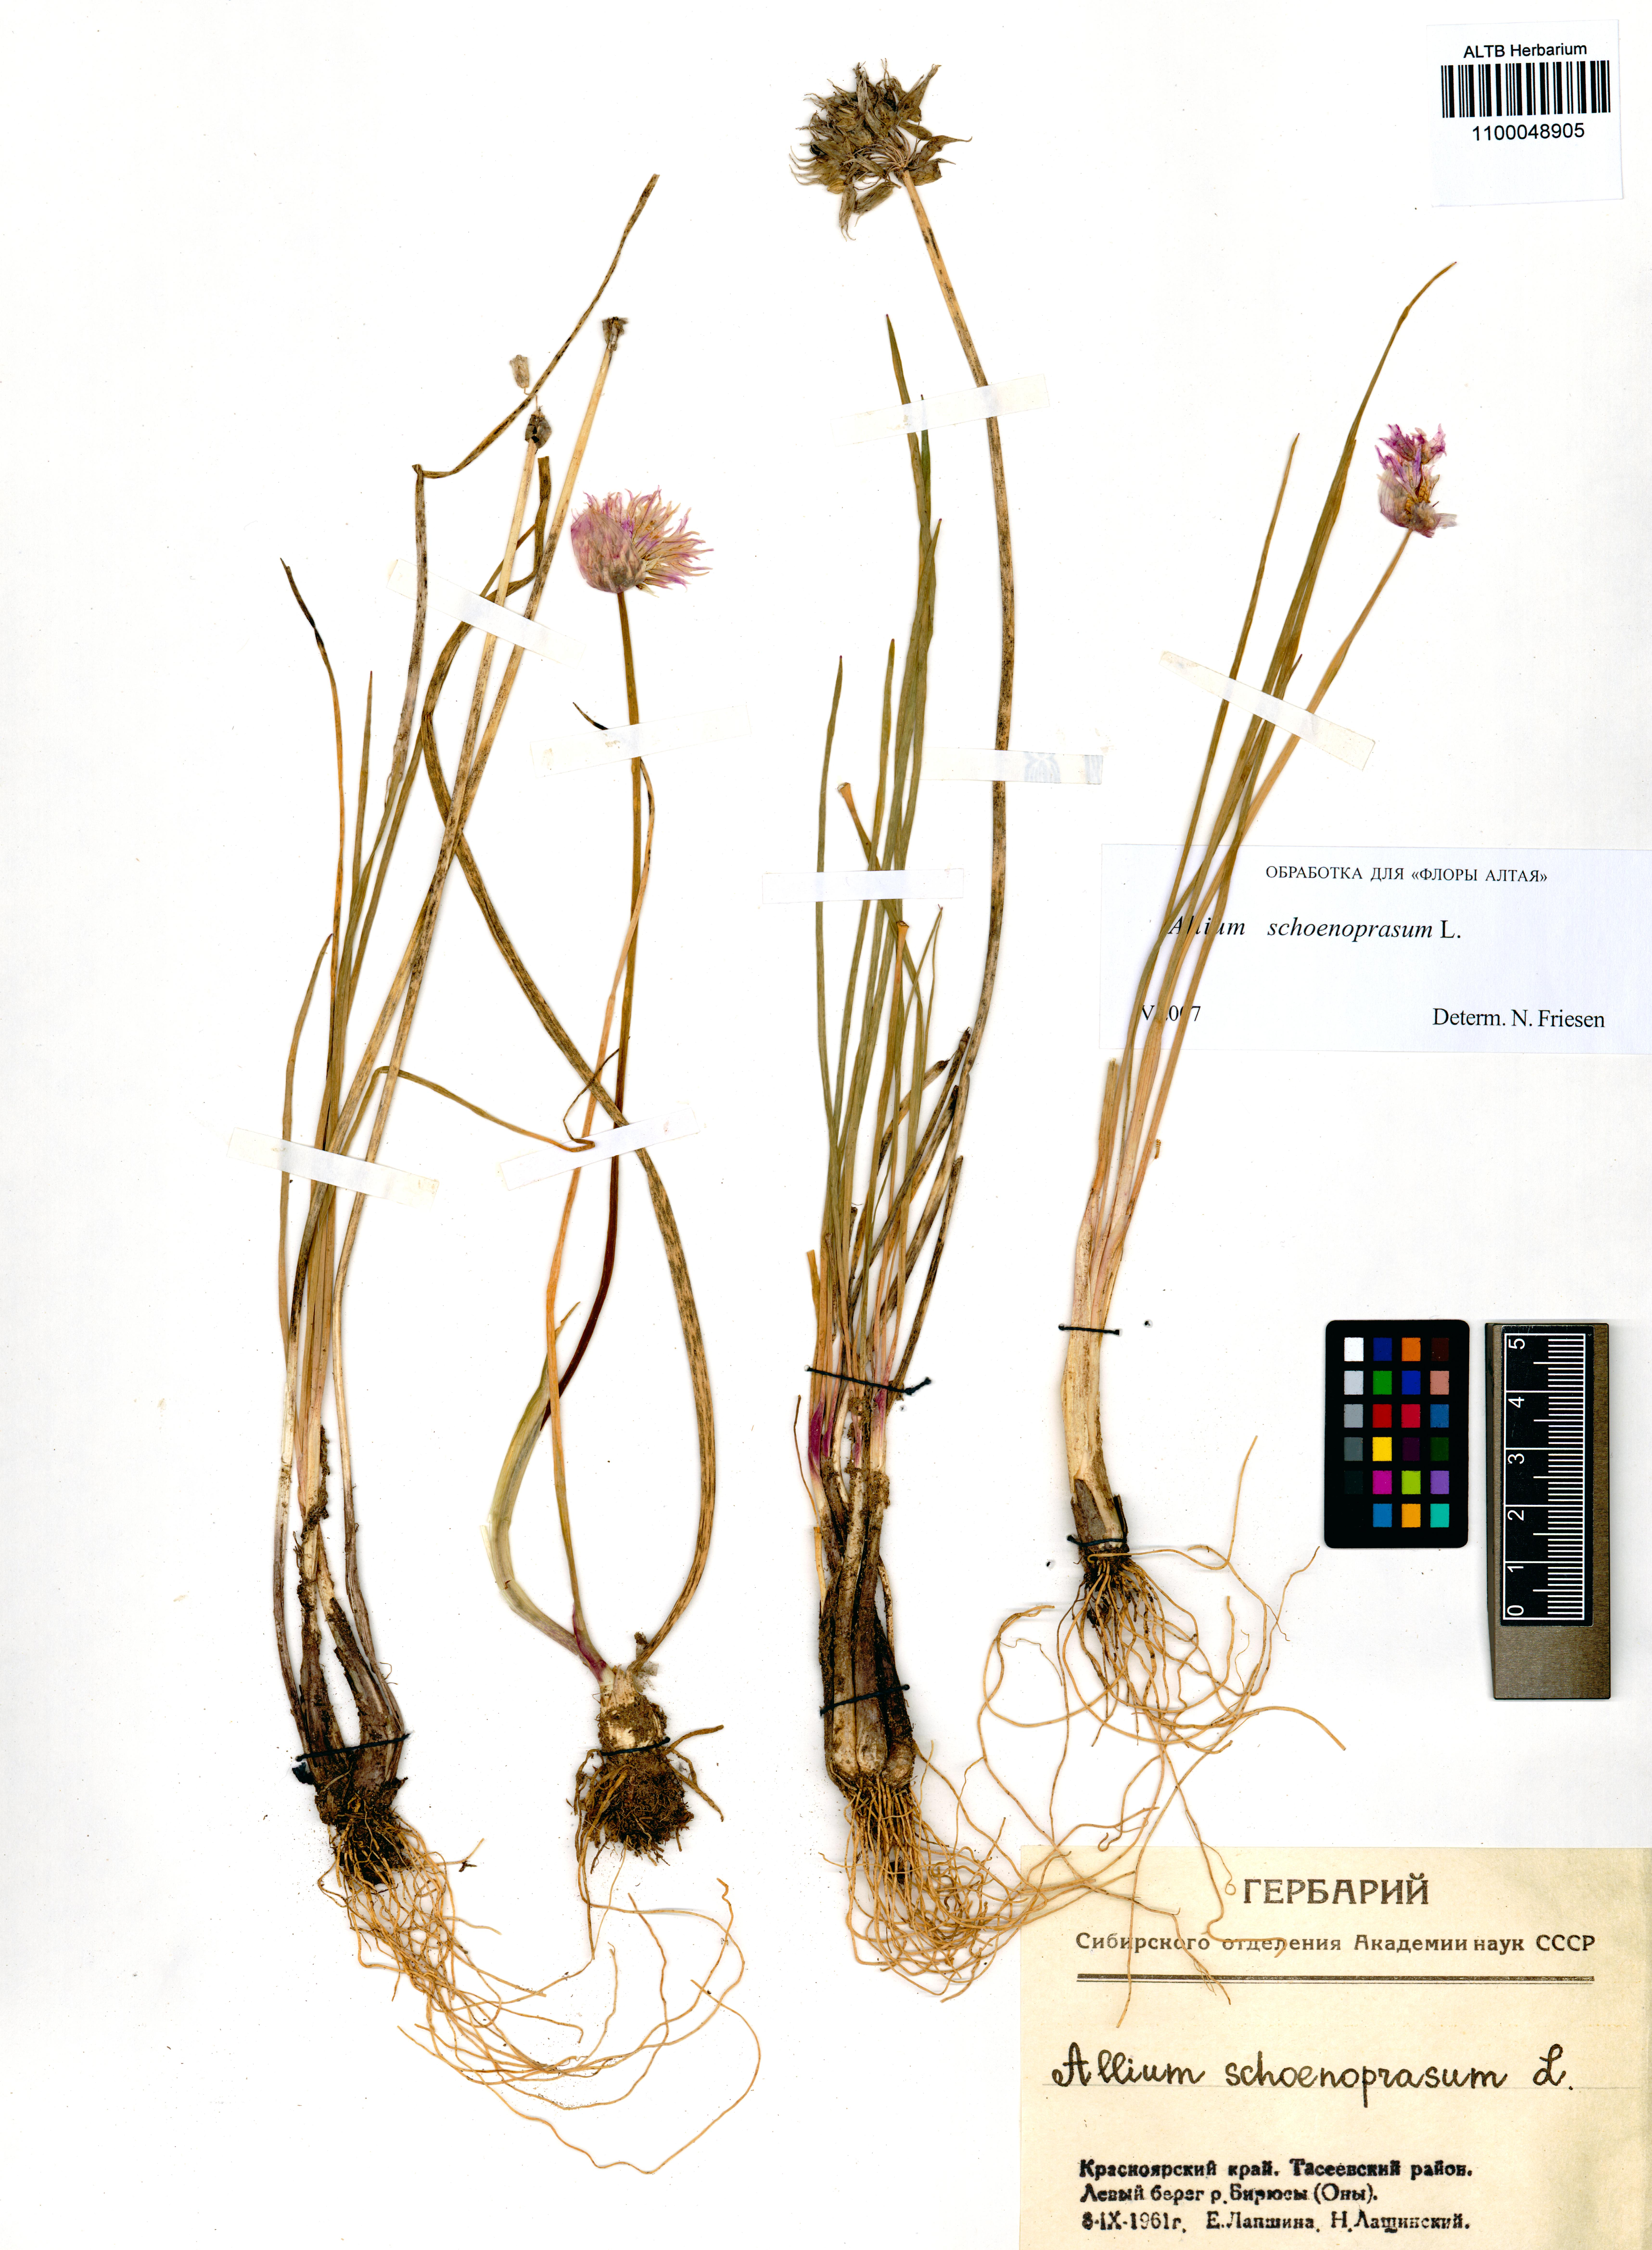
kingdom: Plantae
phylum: Tracheophyta
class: Liliopsida
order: Asparagales
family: Amaryllidaceae
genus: Allium
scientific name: Allium schoenoprasum
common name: Chives
